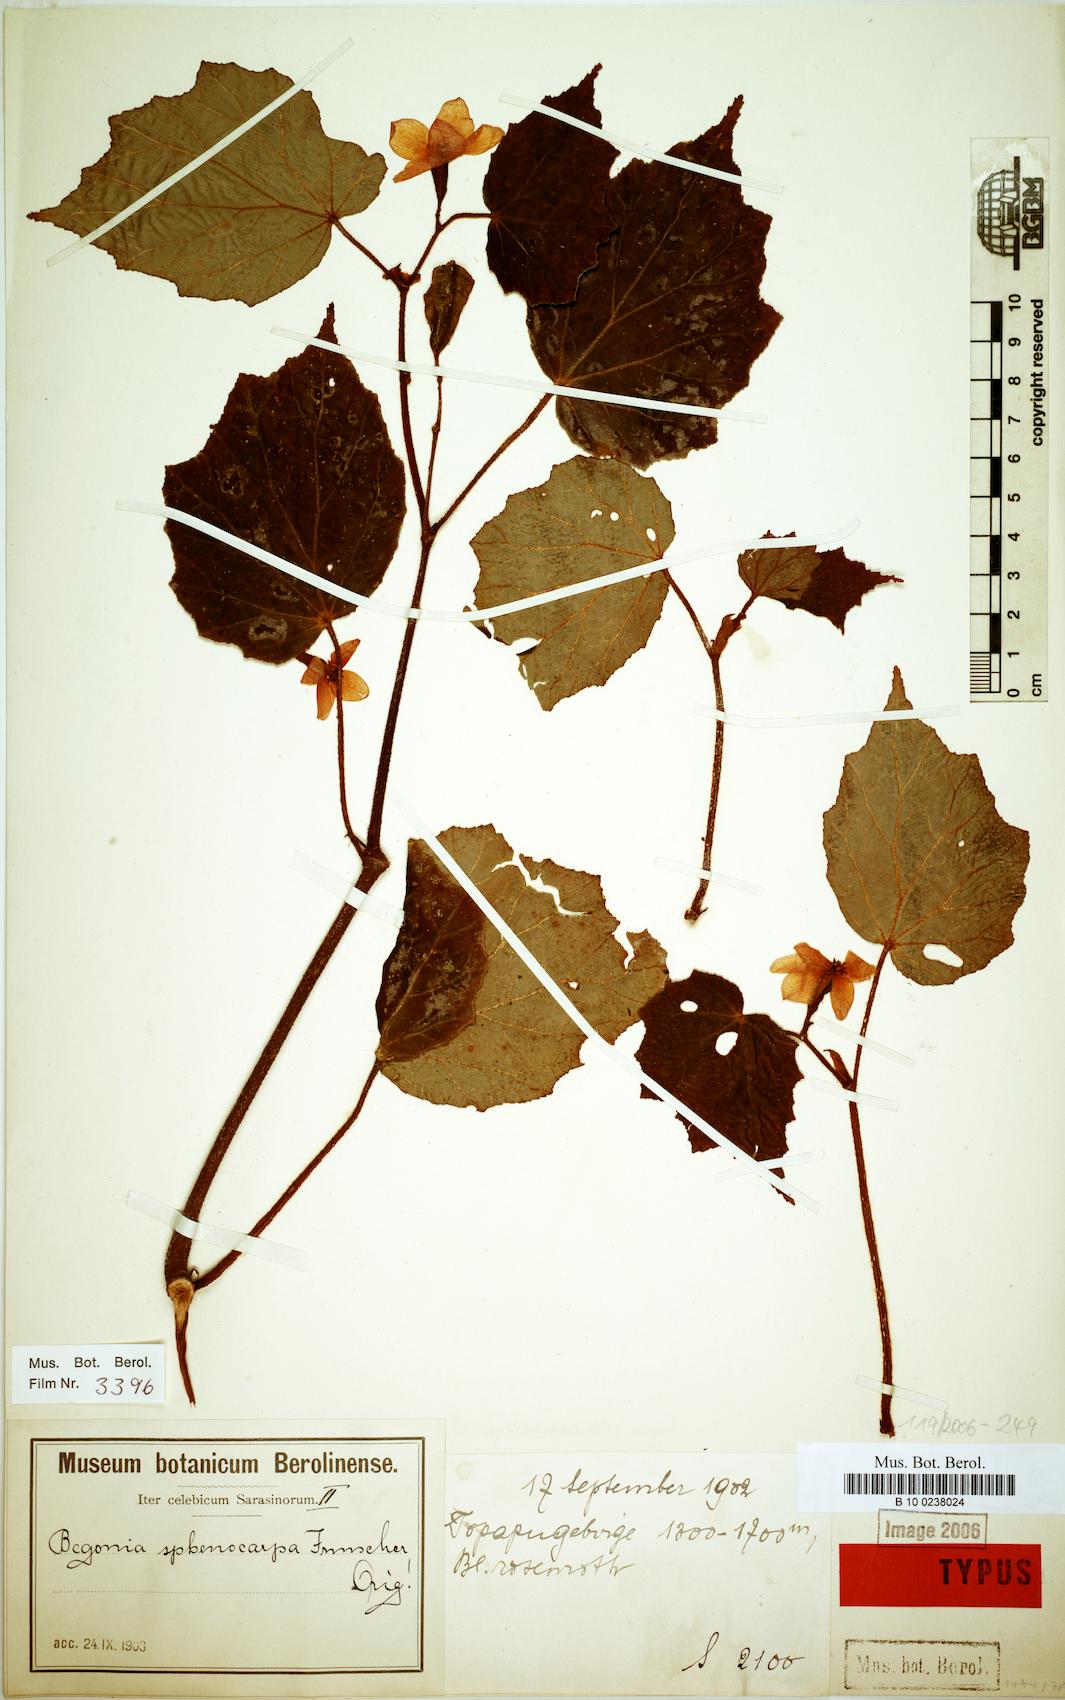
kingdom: Plantae
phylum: Tracheophyta
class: Magnoliopsida
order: Cucurbitales
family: Begoniaceae
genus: Begonia
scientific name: Begonia sphenocarpa
